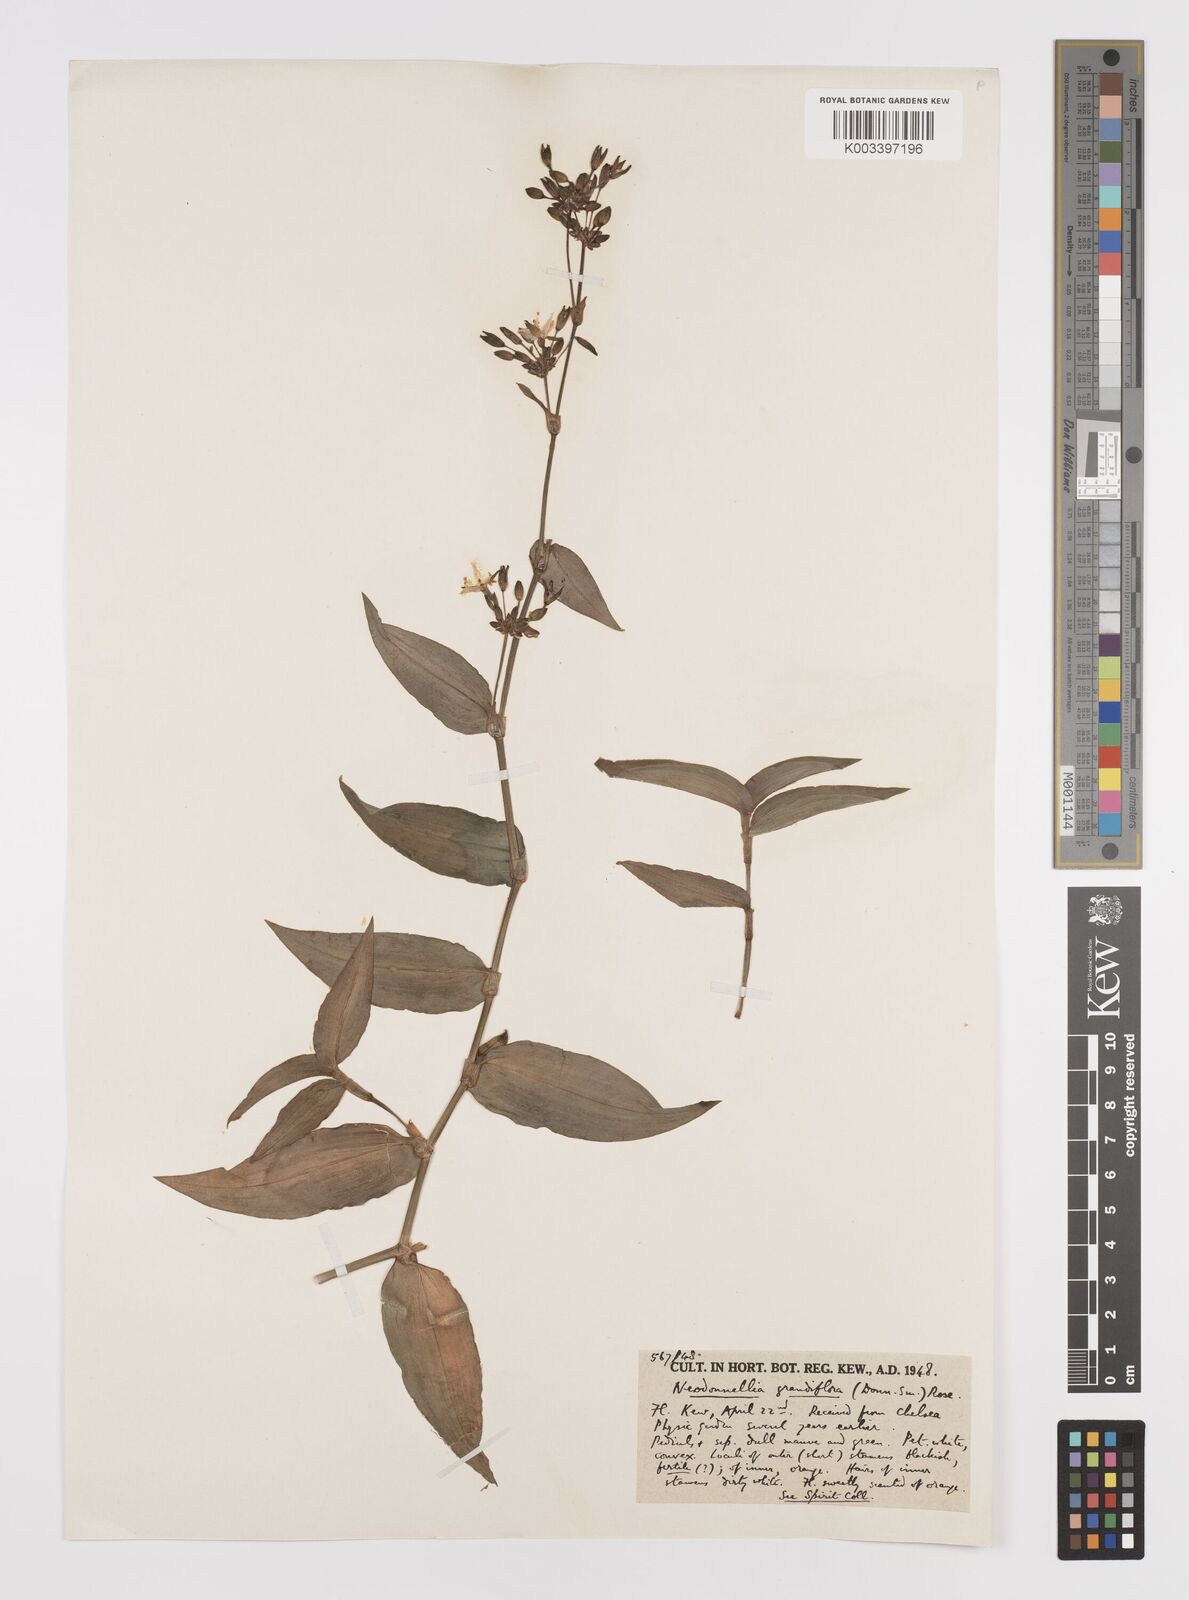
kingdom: Plantae
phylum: Tracheophyta
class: Liliopsida
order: Commelinales
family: Commelinaceae
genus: Callisia
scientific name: Callisia grandiflora
